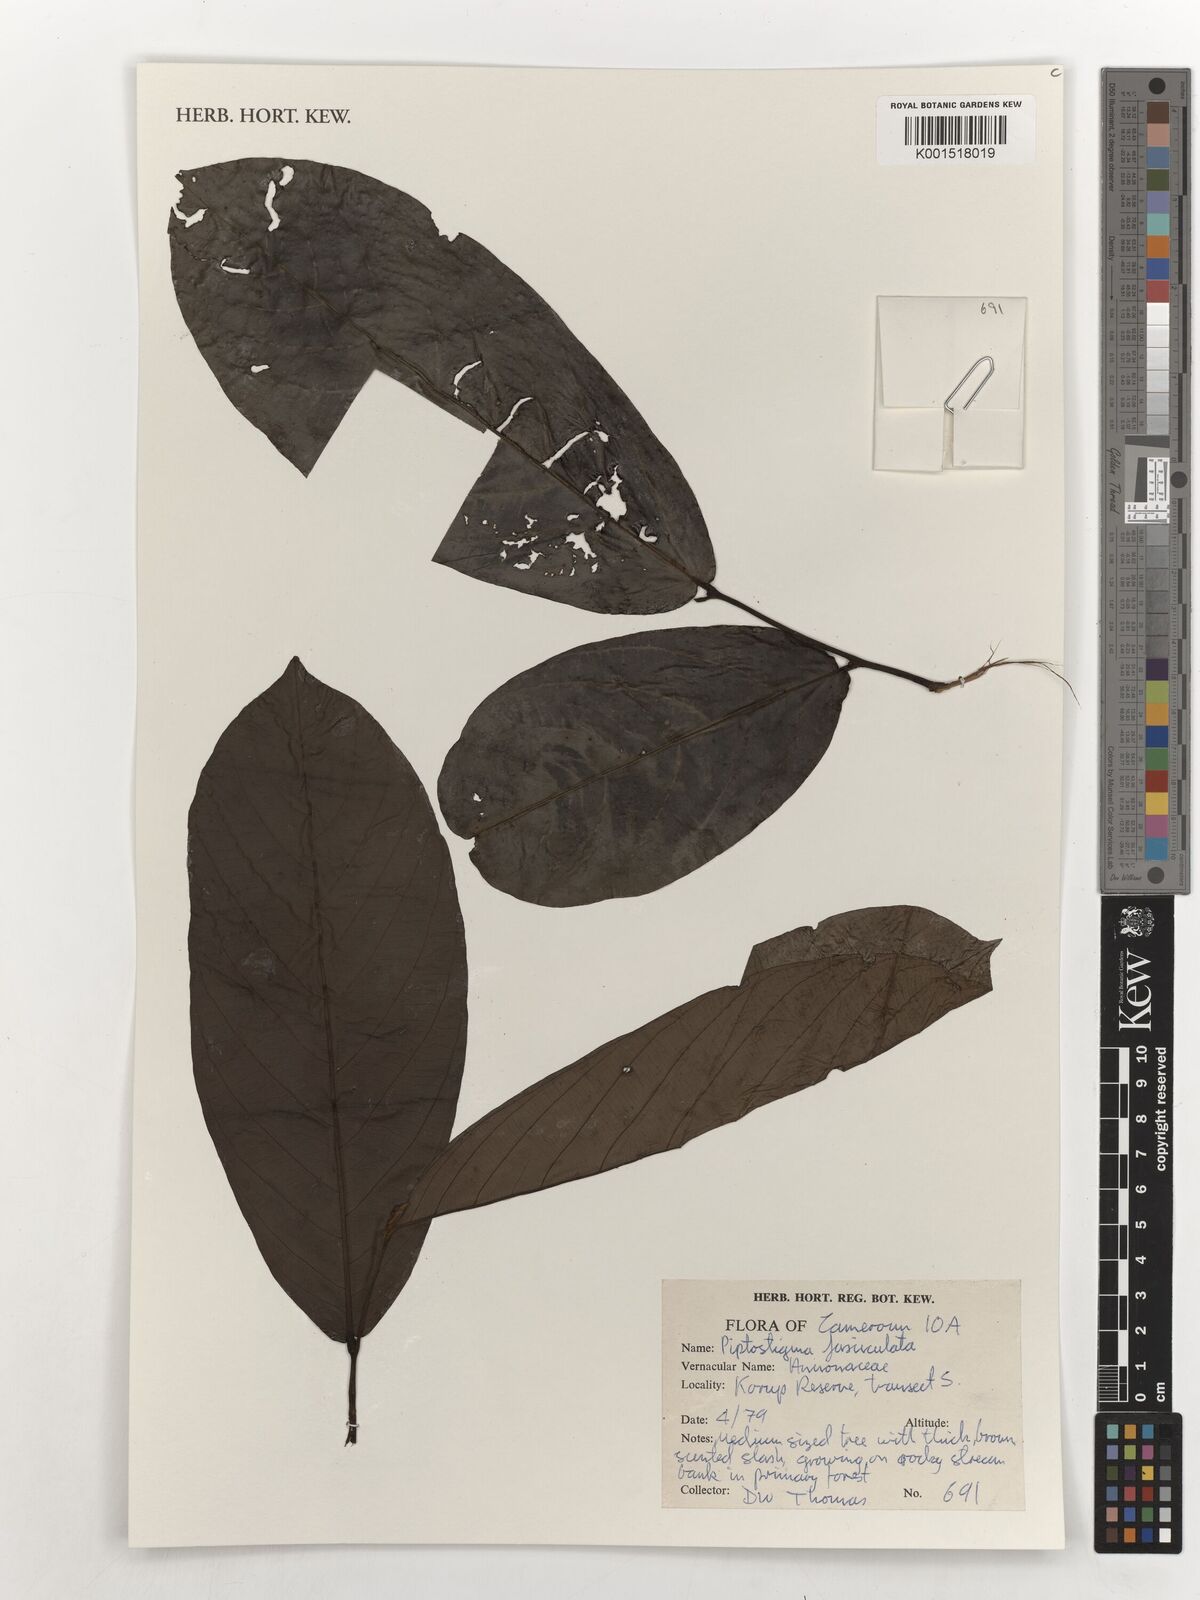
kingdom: Plantae
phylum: Tracheophyta
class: Magnoliopsida
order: Magnoliales
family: Annonaceae
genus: Piptostigma
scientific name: Piptostigma fasciculatum
